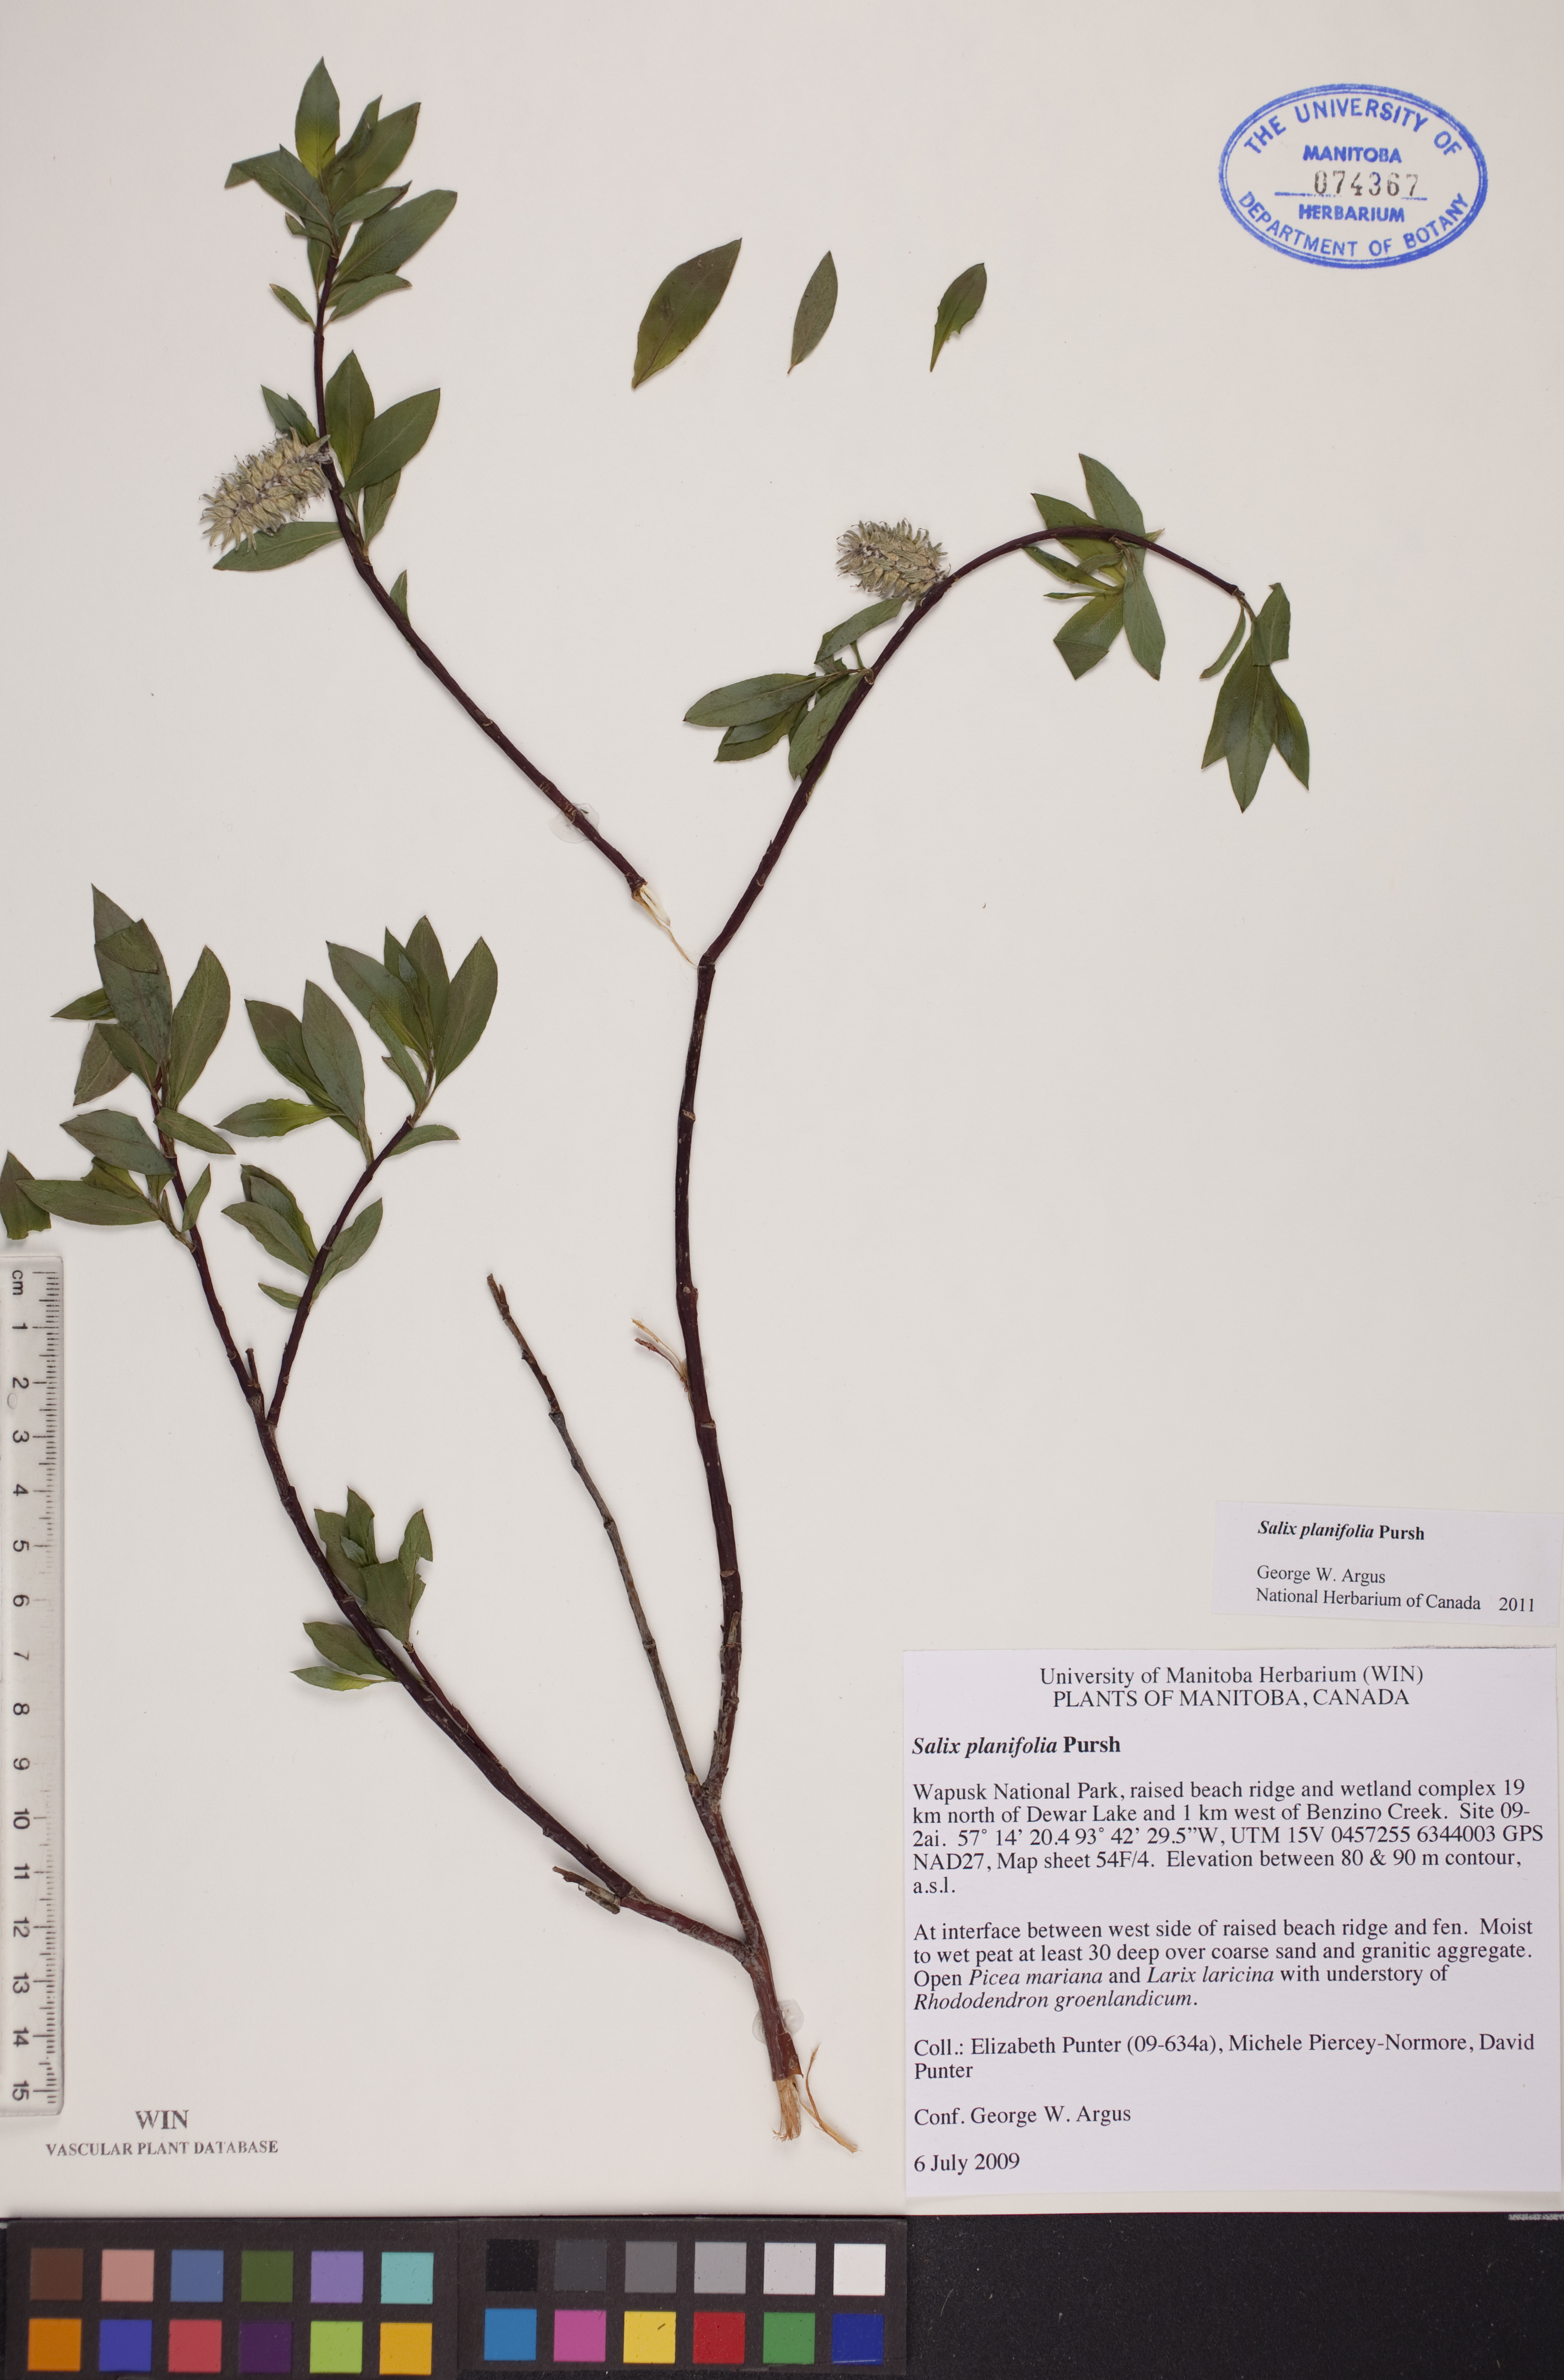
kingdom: Plantae
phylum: Tracheophyta
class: Magnoliopsida
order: Malpighiales
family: Salicaceae
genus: Salix
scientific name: Salix planifolia
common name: Mountain willow
